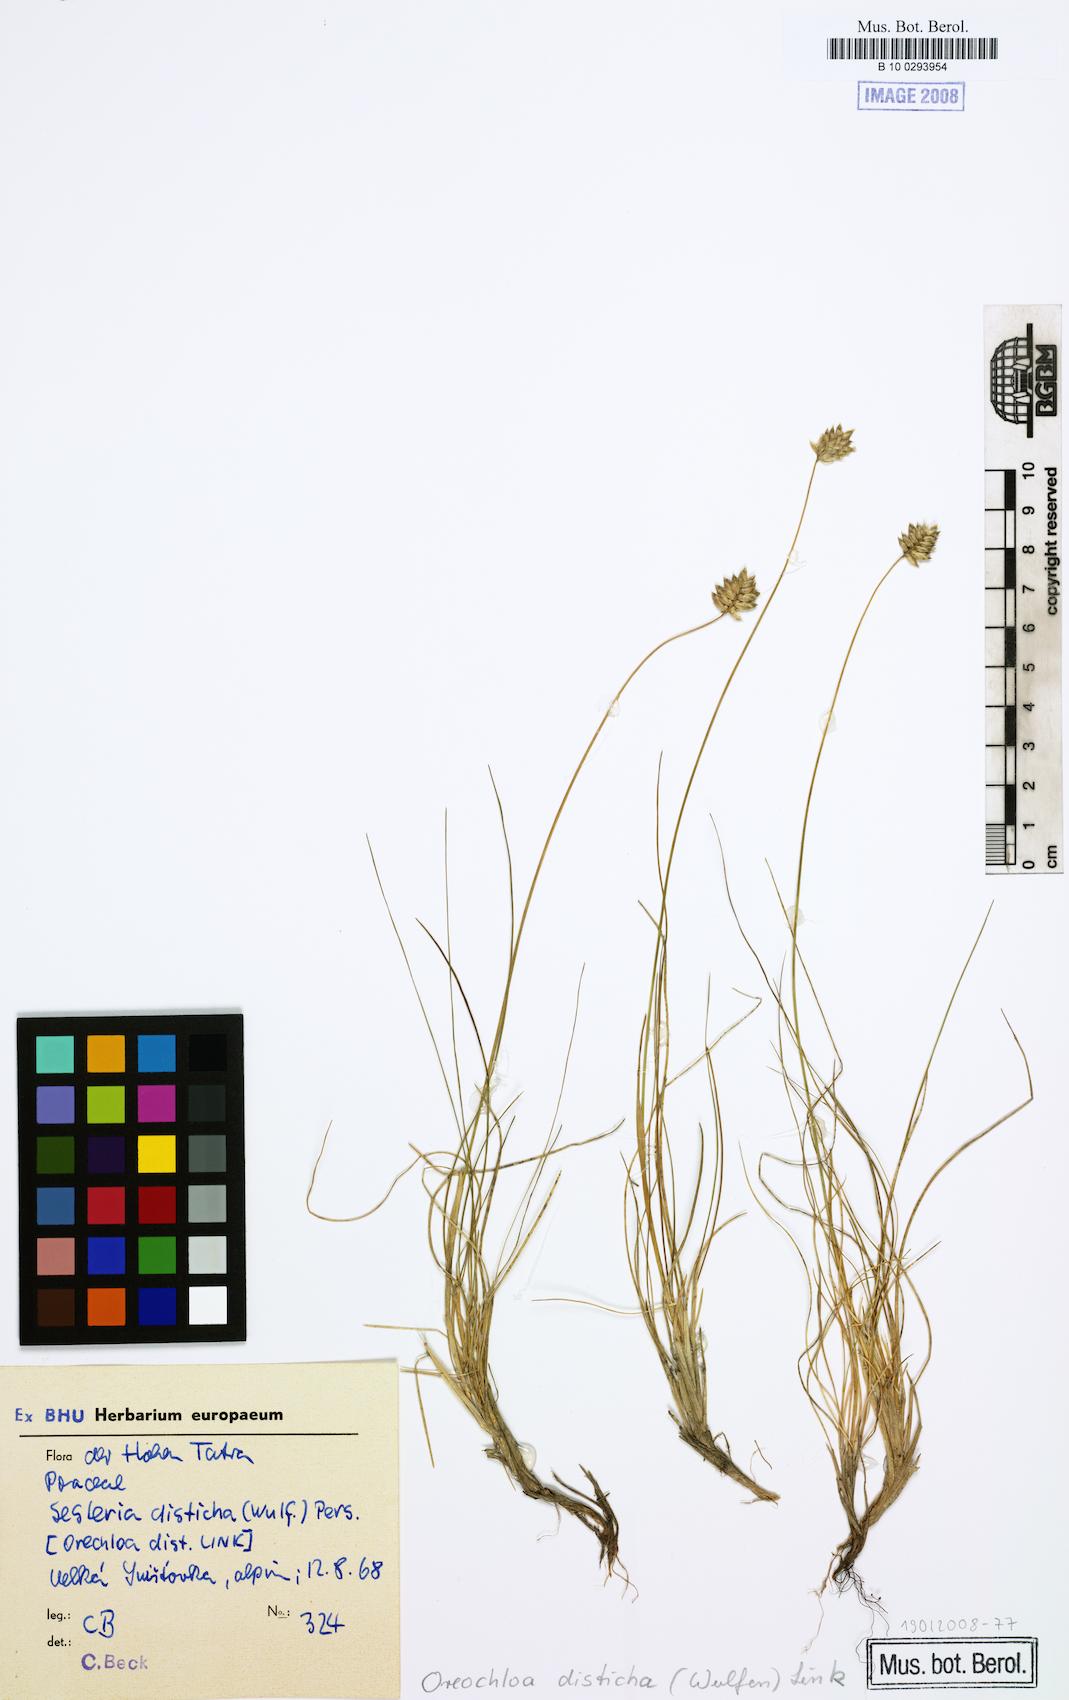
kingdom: Plantae
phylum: Tracheophyta
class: Liliopsida
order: Poales
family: Poaceae
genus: Oreochloa
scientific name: Oreochloa disticha
